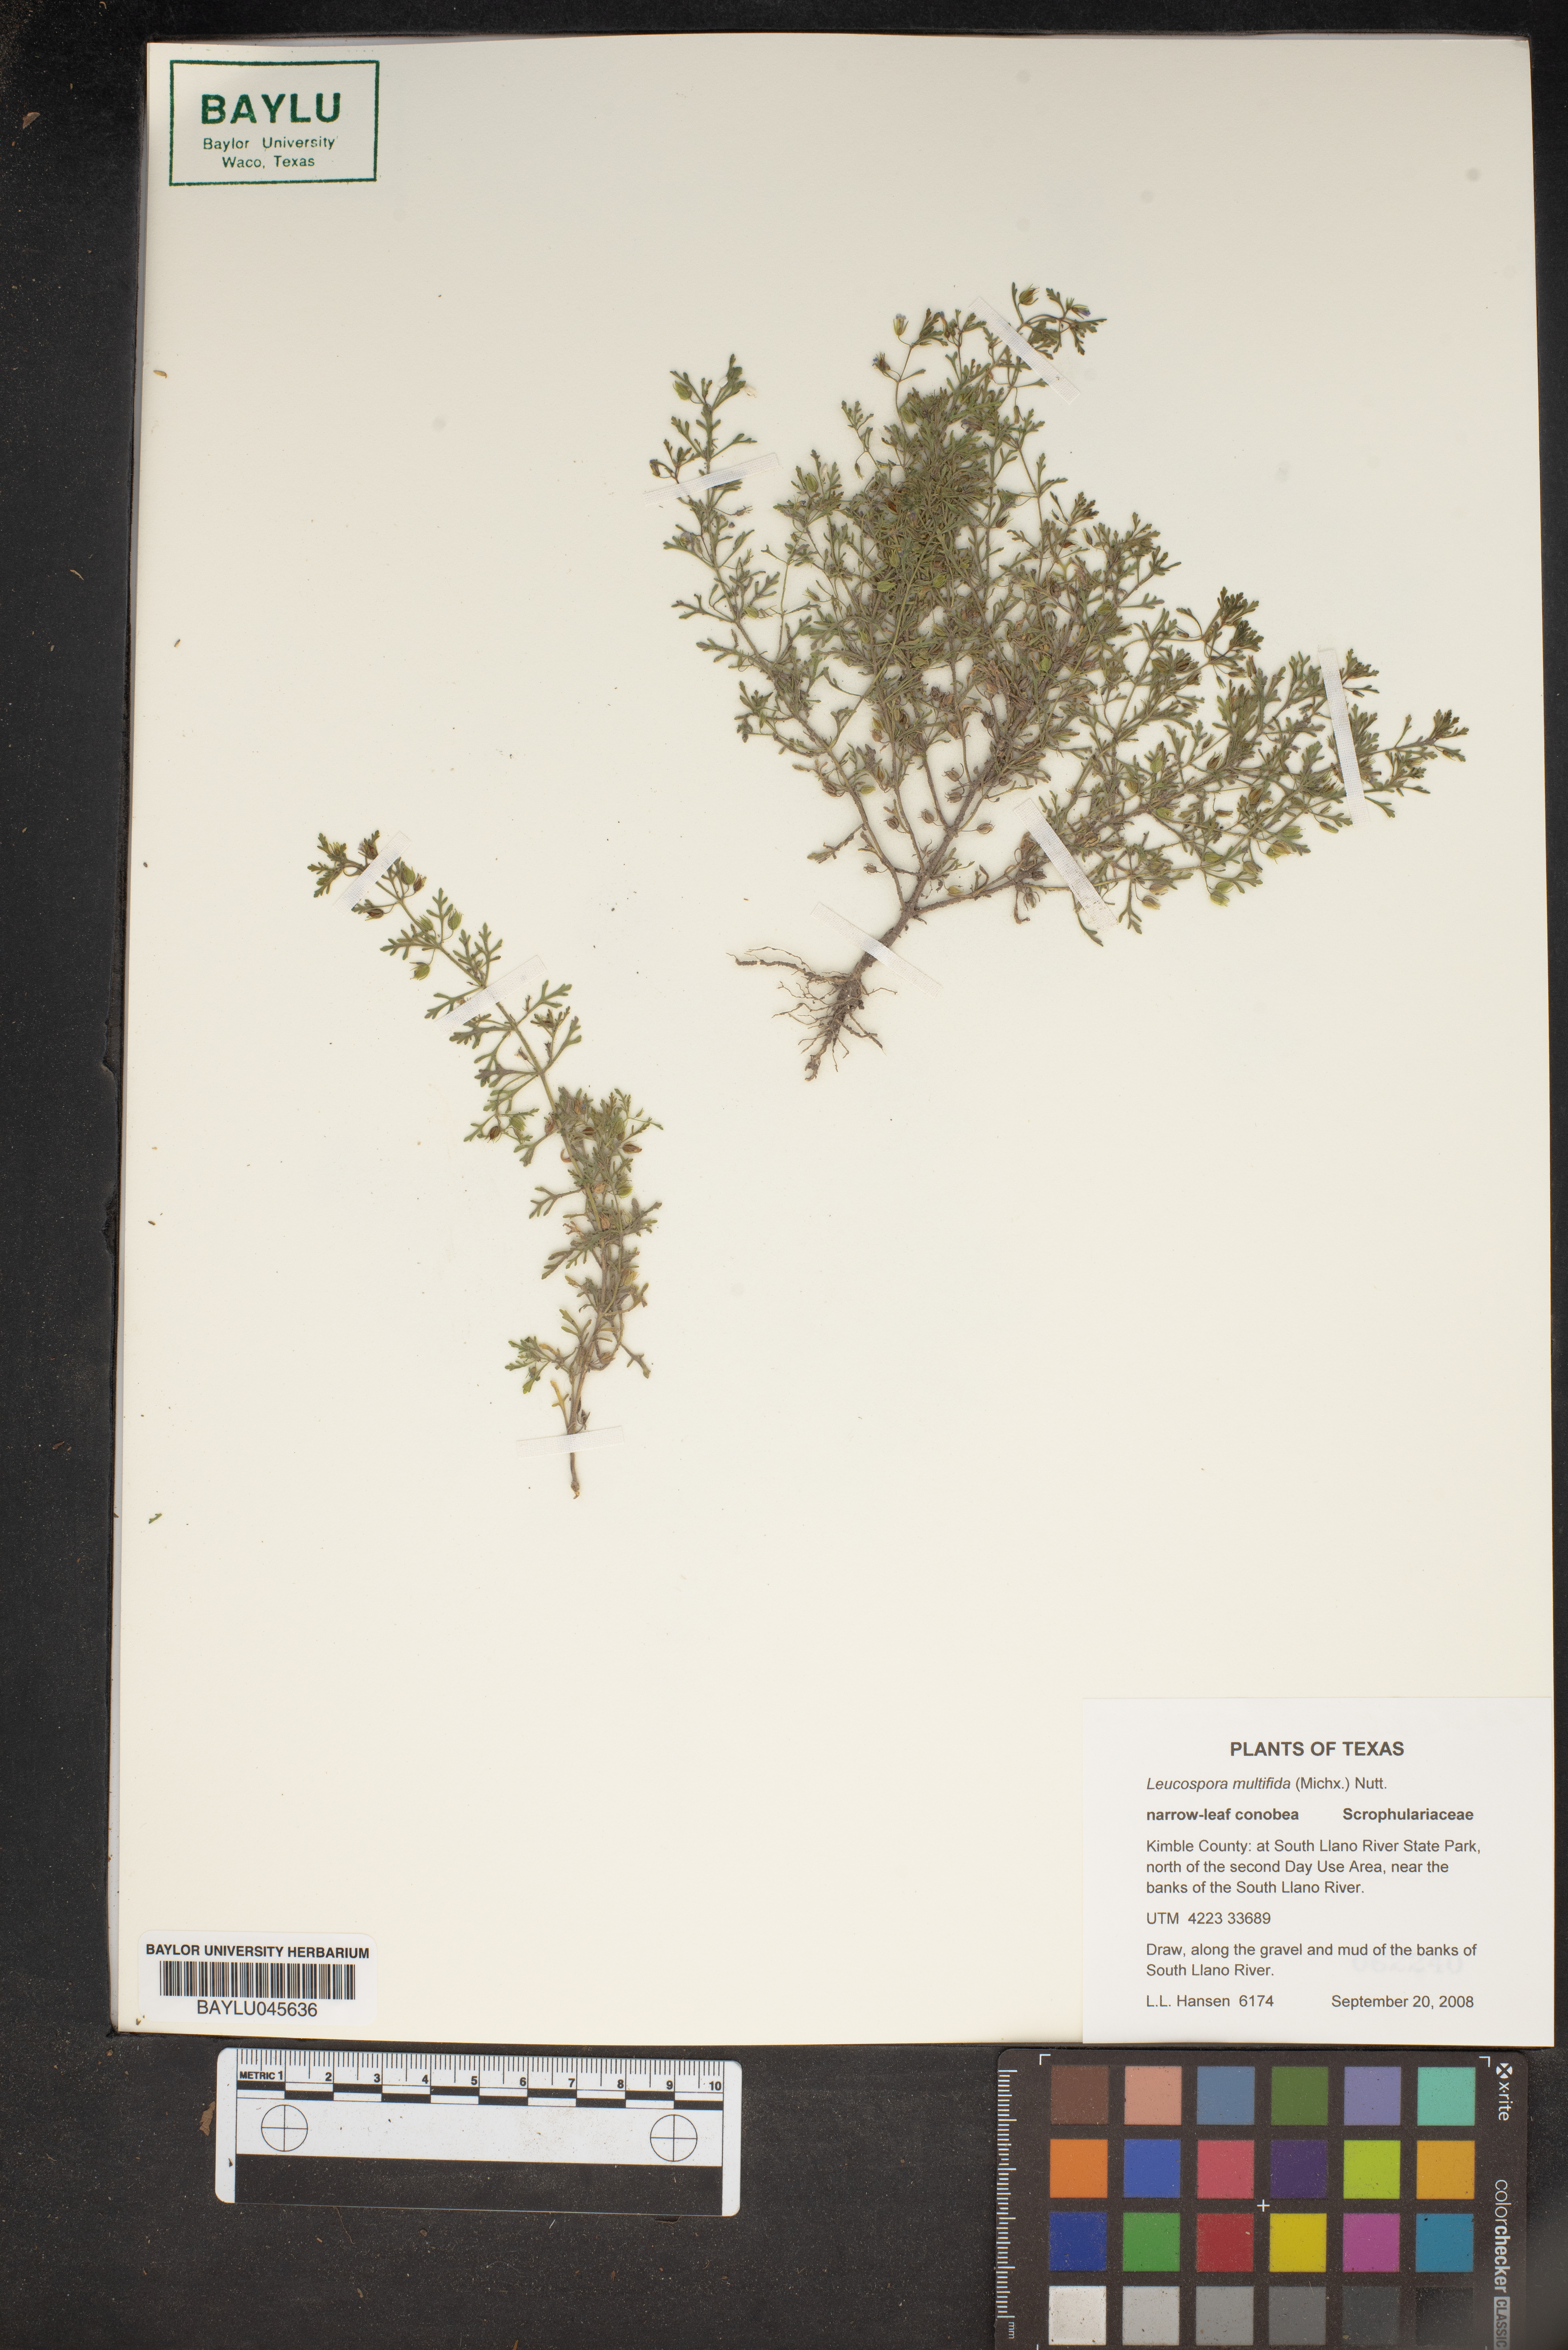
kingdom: Plantae
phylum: Tracheophyta
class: Magnoliopsida
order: Lamiales
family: Plantaginaceae
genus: Leucospora
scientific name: Leucospora multifida
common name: Narrow-leaf paleseed
